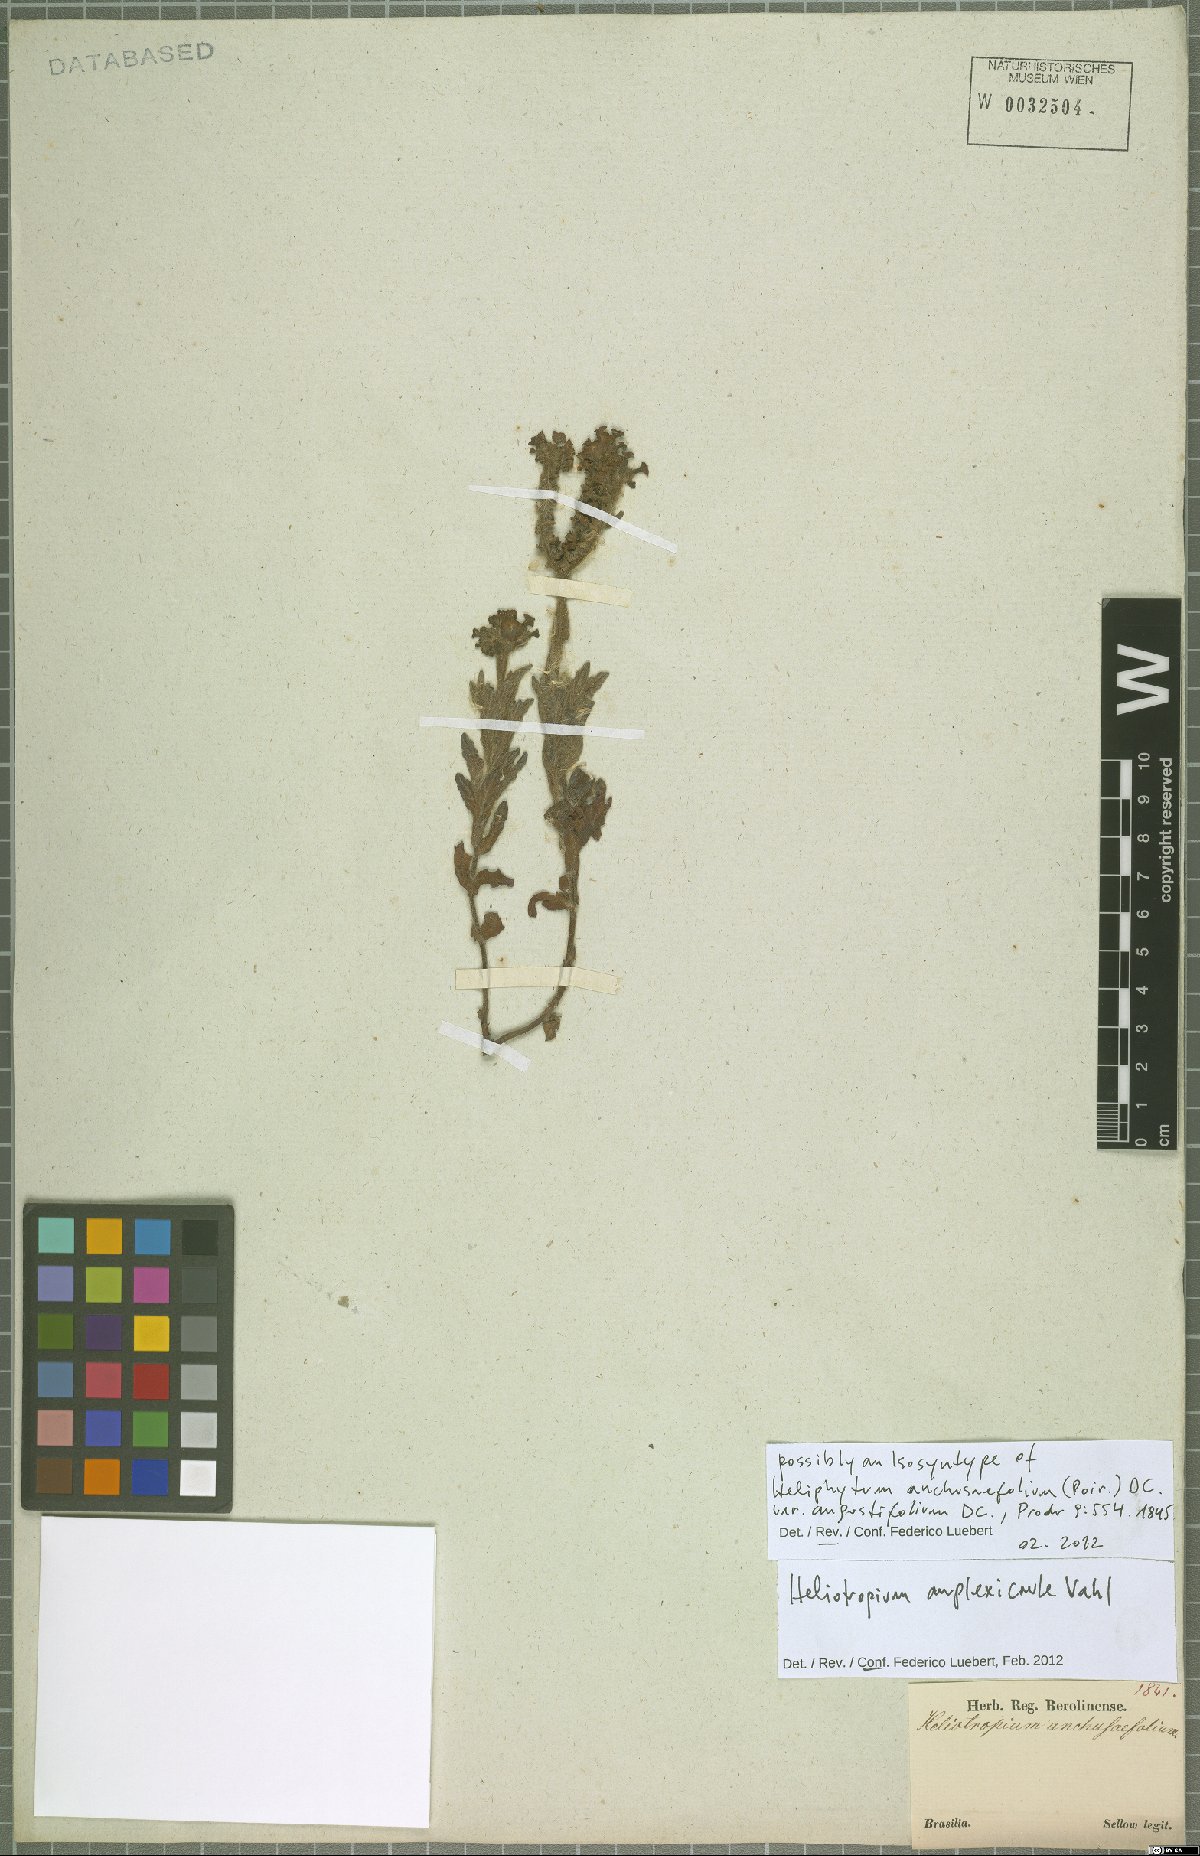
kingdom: Plantae
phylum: Tracheophyta
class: Magnoliopsida
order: Boraginales
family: Heliotropiaceae
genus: Heliotropium
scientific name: Heliotropium amplexicaule
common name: Clasping heliotrope
